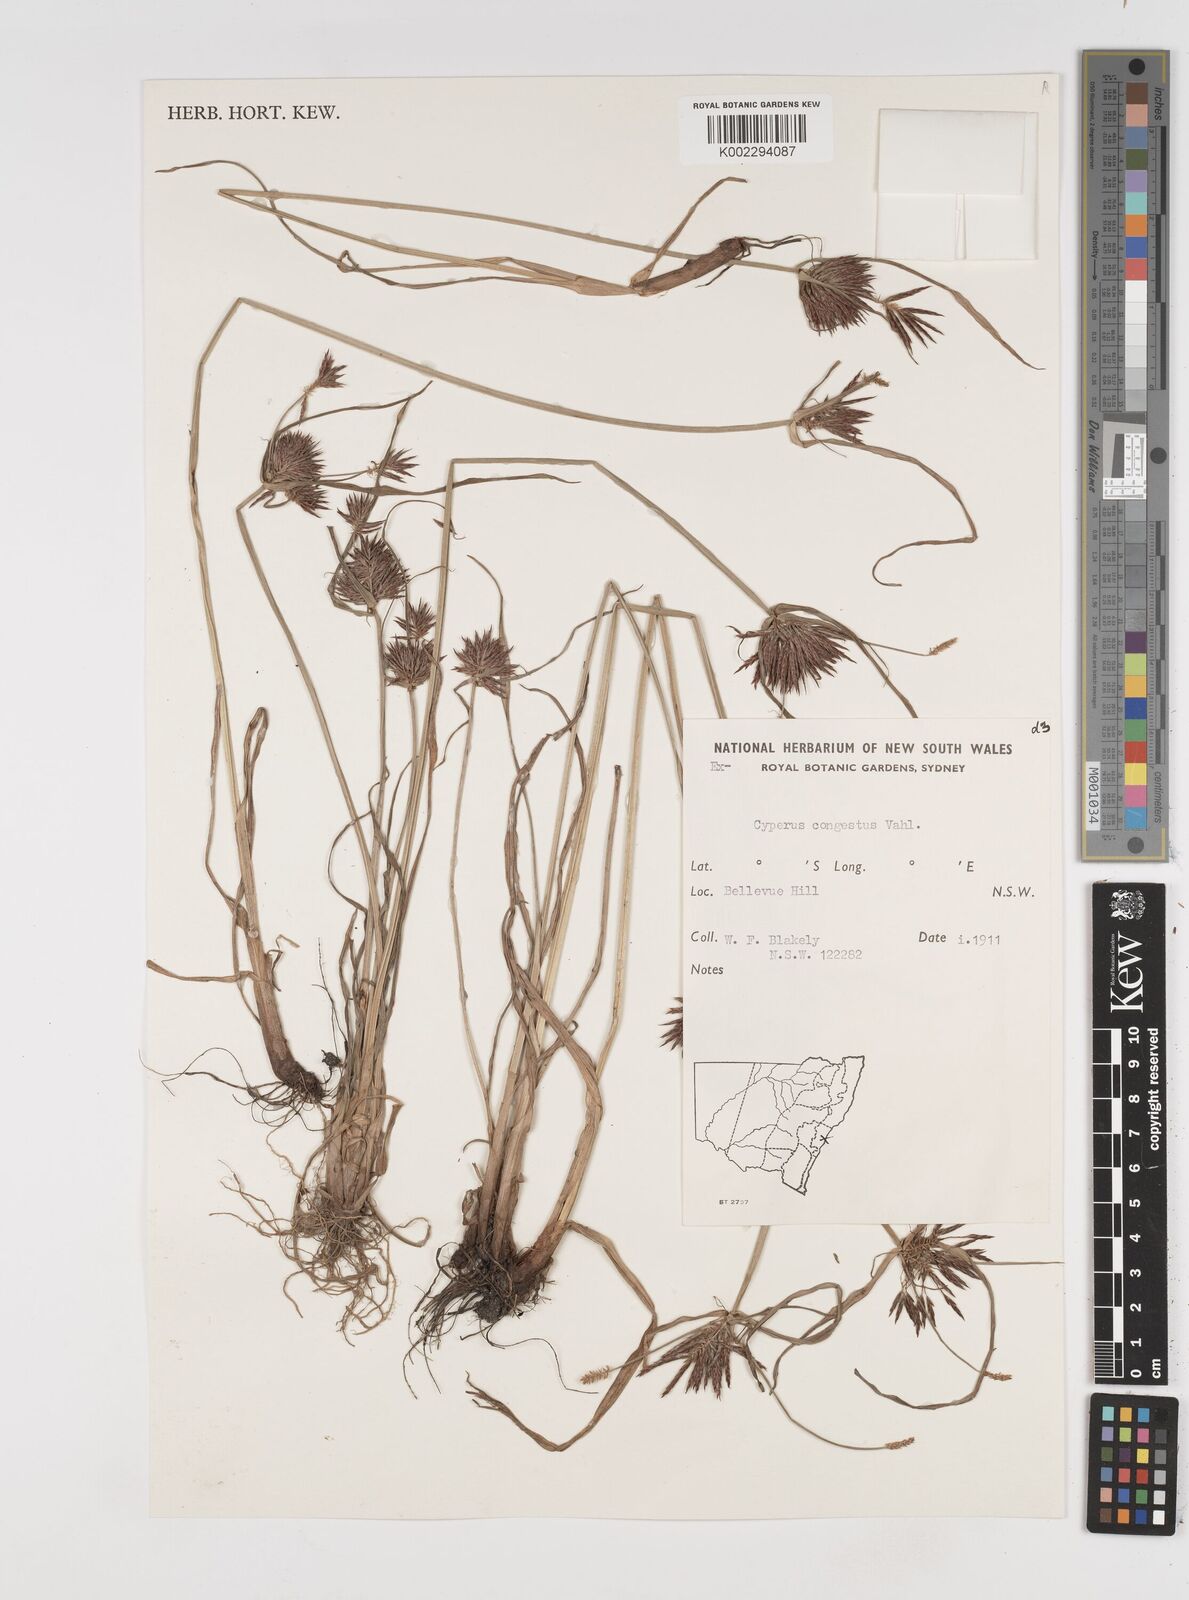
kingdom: Plantae
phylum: Tracheophyta
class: Liliopsida
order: Poales
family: Cyperaceae
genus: Cyperus
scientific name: Cyperus congestus
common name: Dense flat sedge
